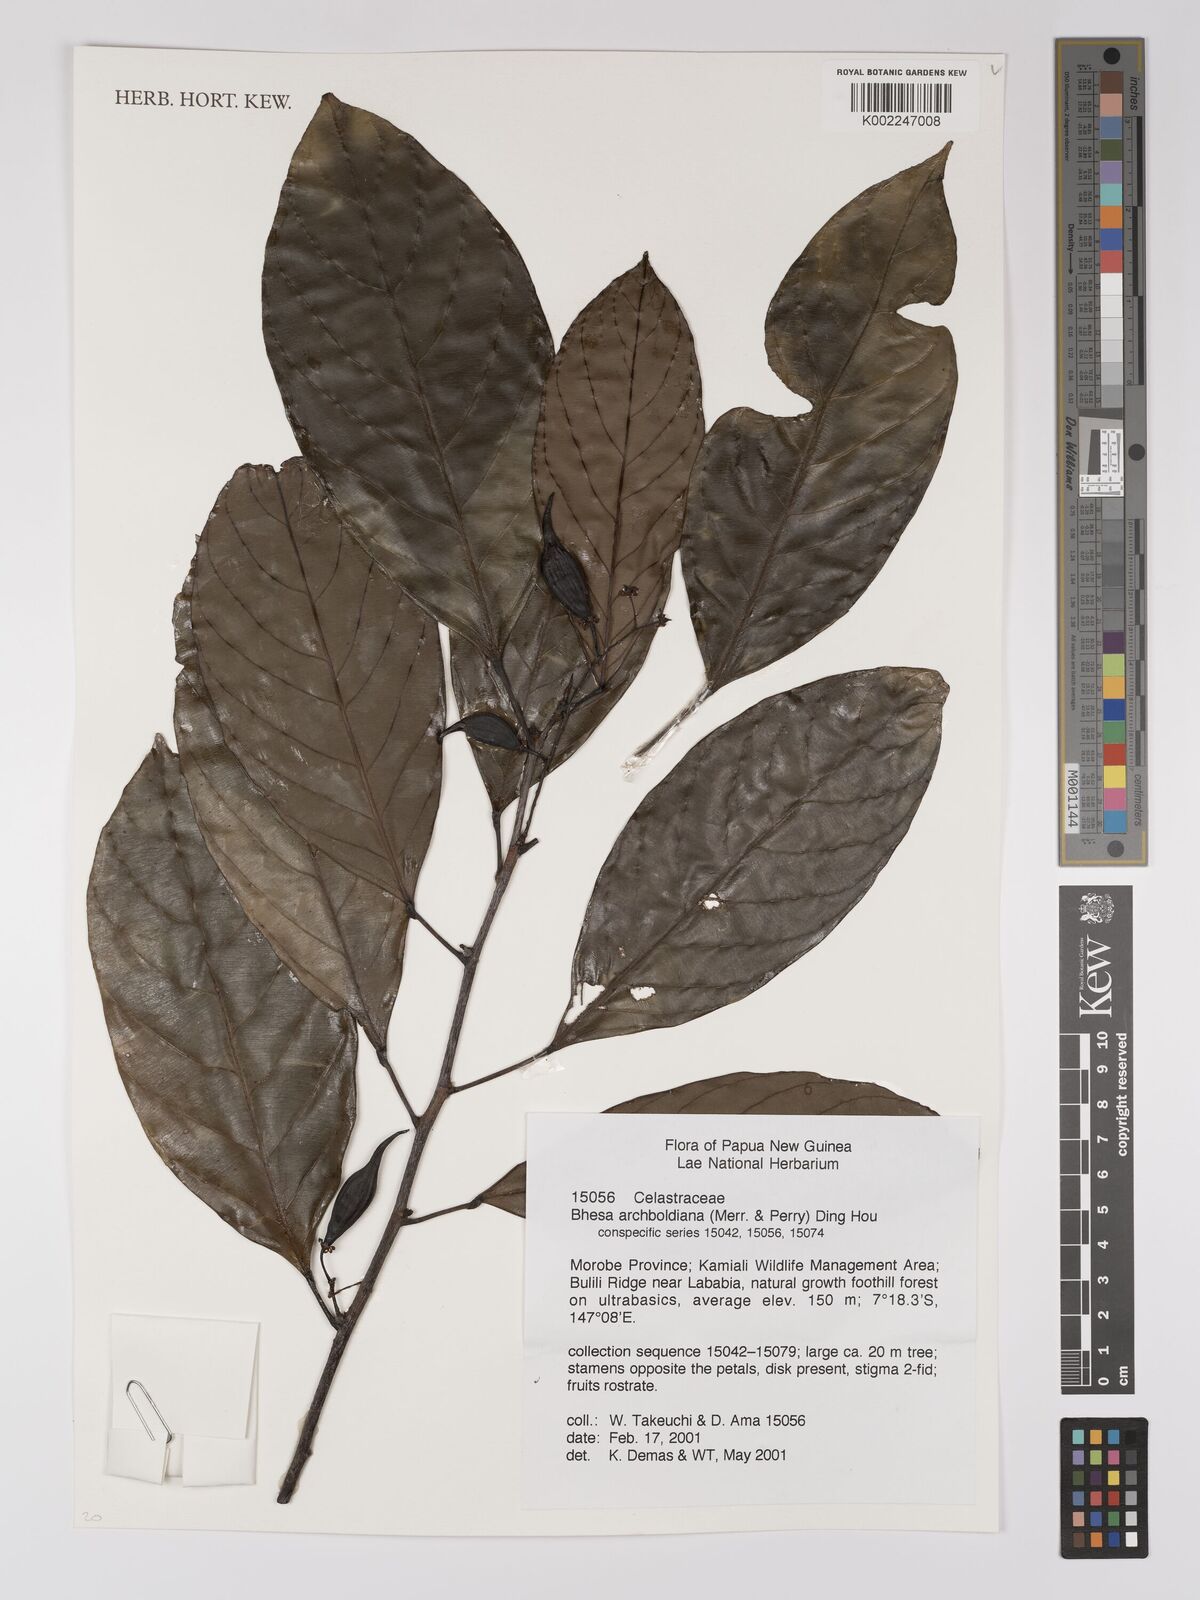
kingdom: Plantae
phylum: Tracheophyta
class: Magnoliopsida
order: Malpighiales
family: Centroplacaceae
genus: Bhesa
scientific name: Bhesa archboldiana
